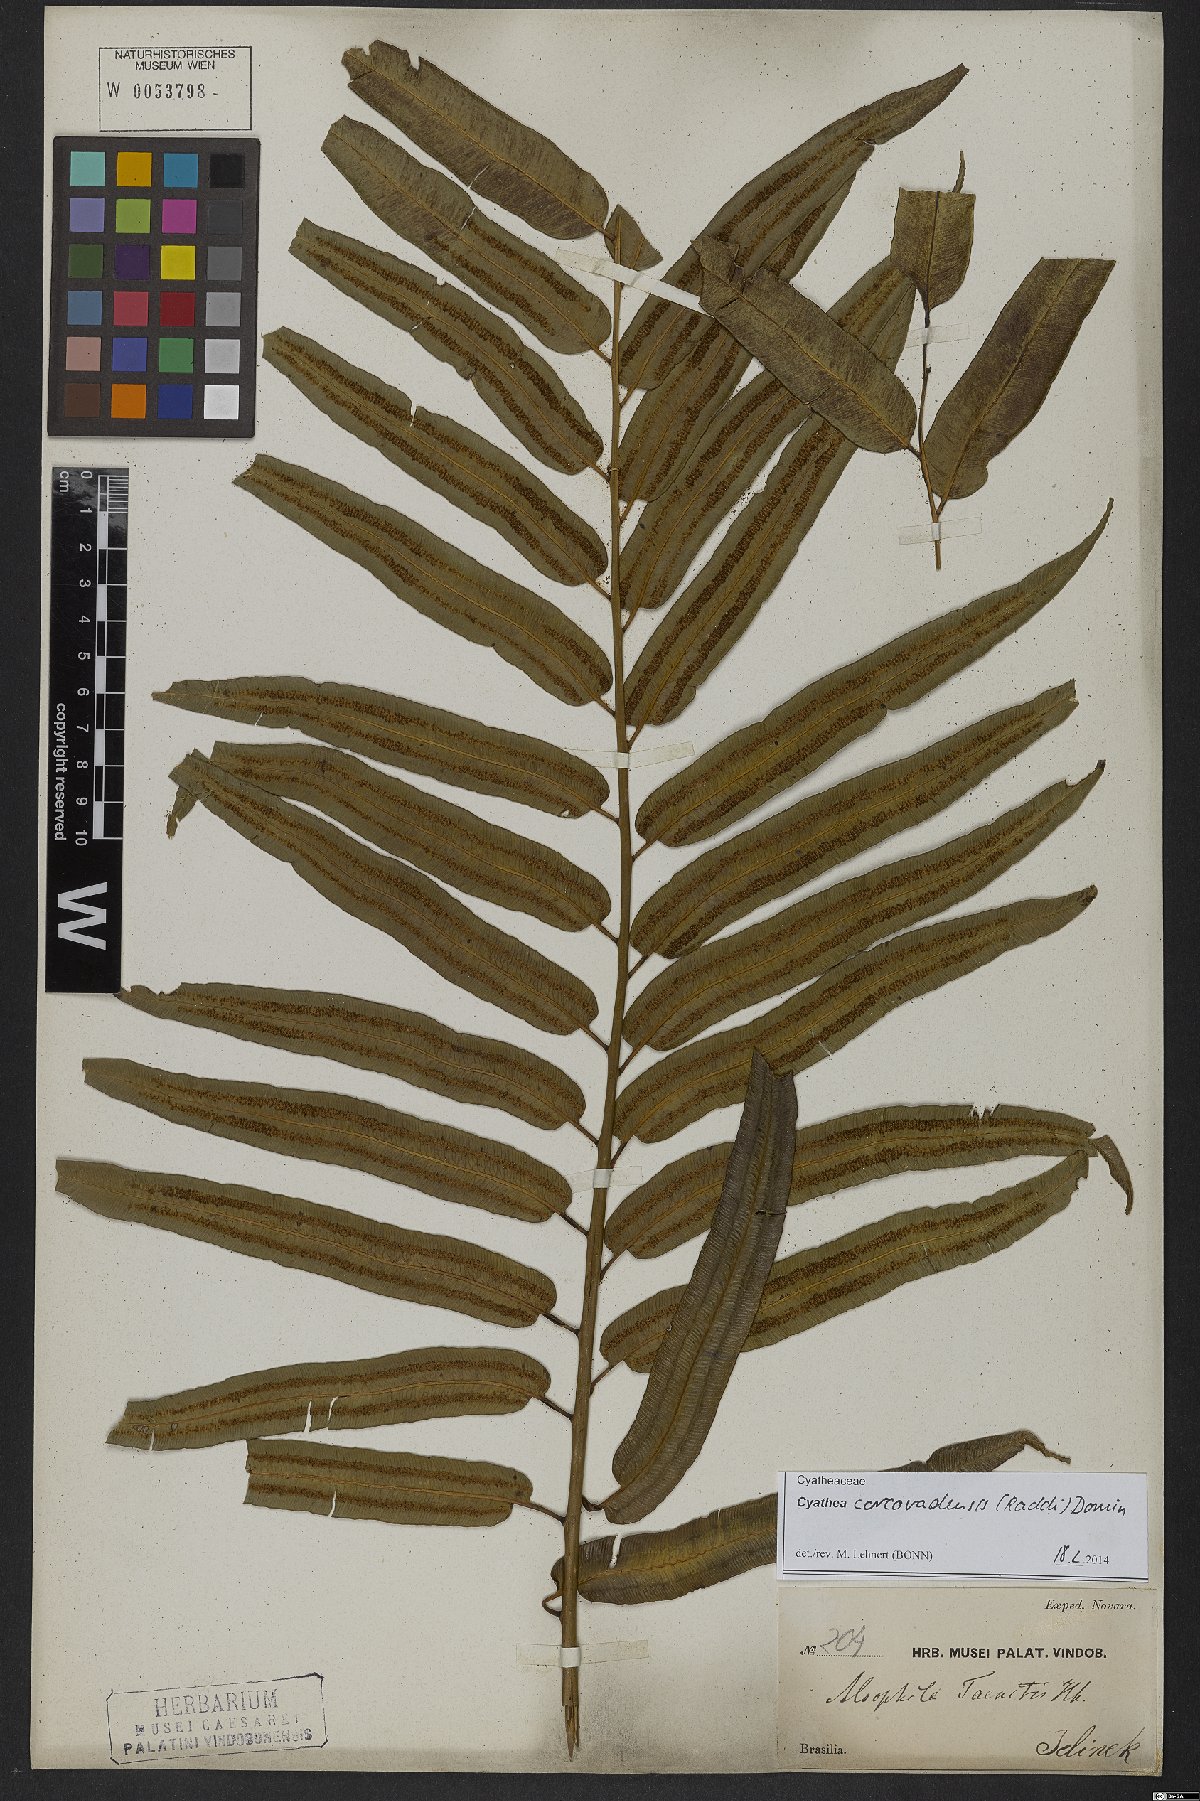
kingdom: Plantae
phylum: Tracheophyta
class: Polypodiopsida
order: Cyatheales
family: Cyatheaceae
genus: Cyathea
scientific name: Cyathea corcovadensis
